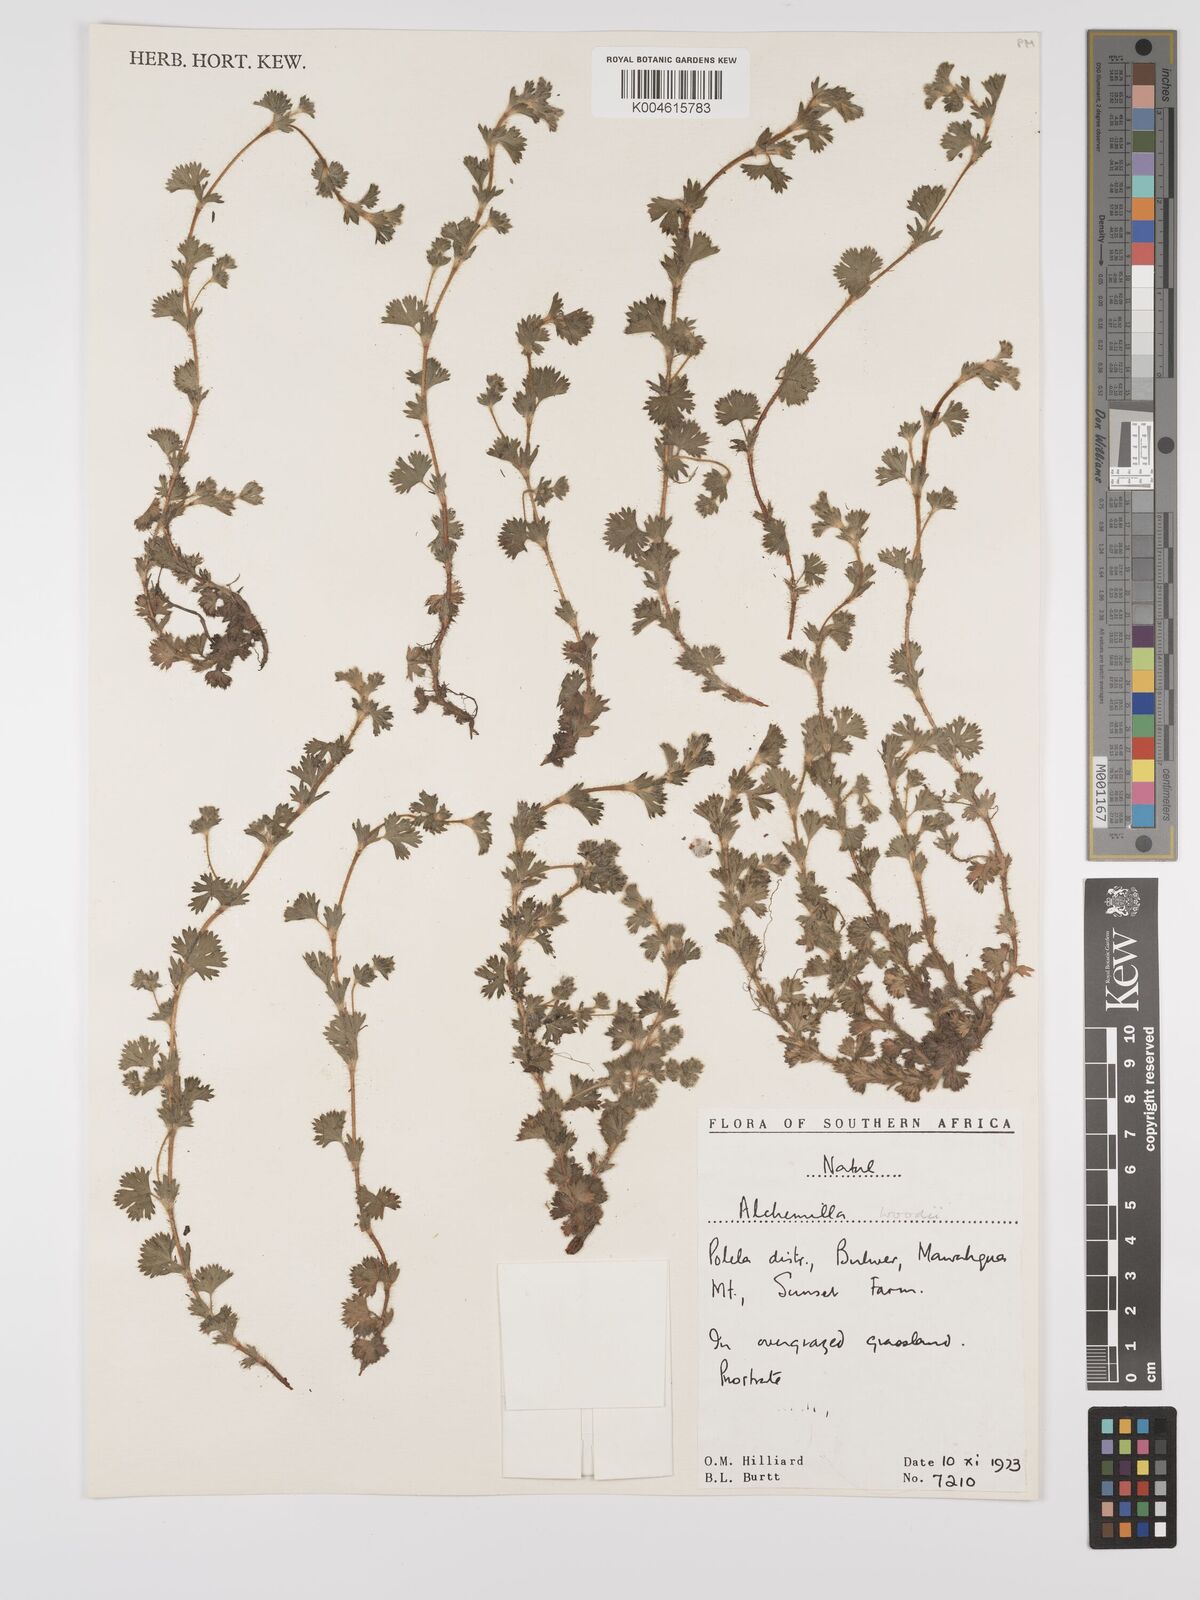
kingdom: Plantae
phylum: Tracheophyta
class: Magnoliopsida
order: Rosales
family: Rosaceae
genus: Alchemilla
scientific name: Alchemilla woodii
